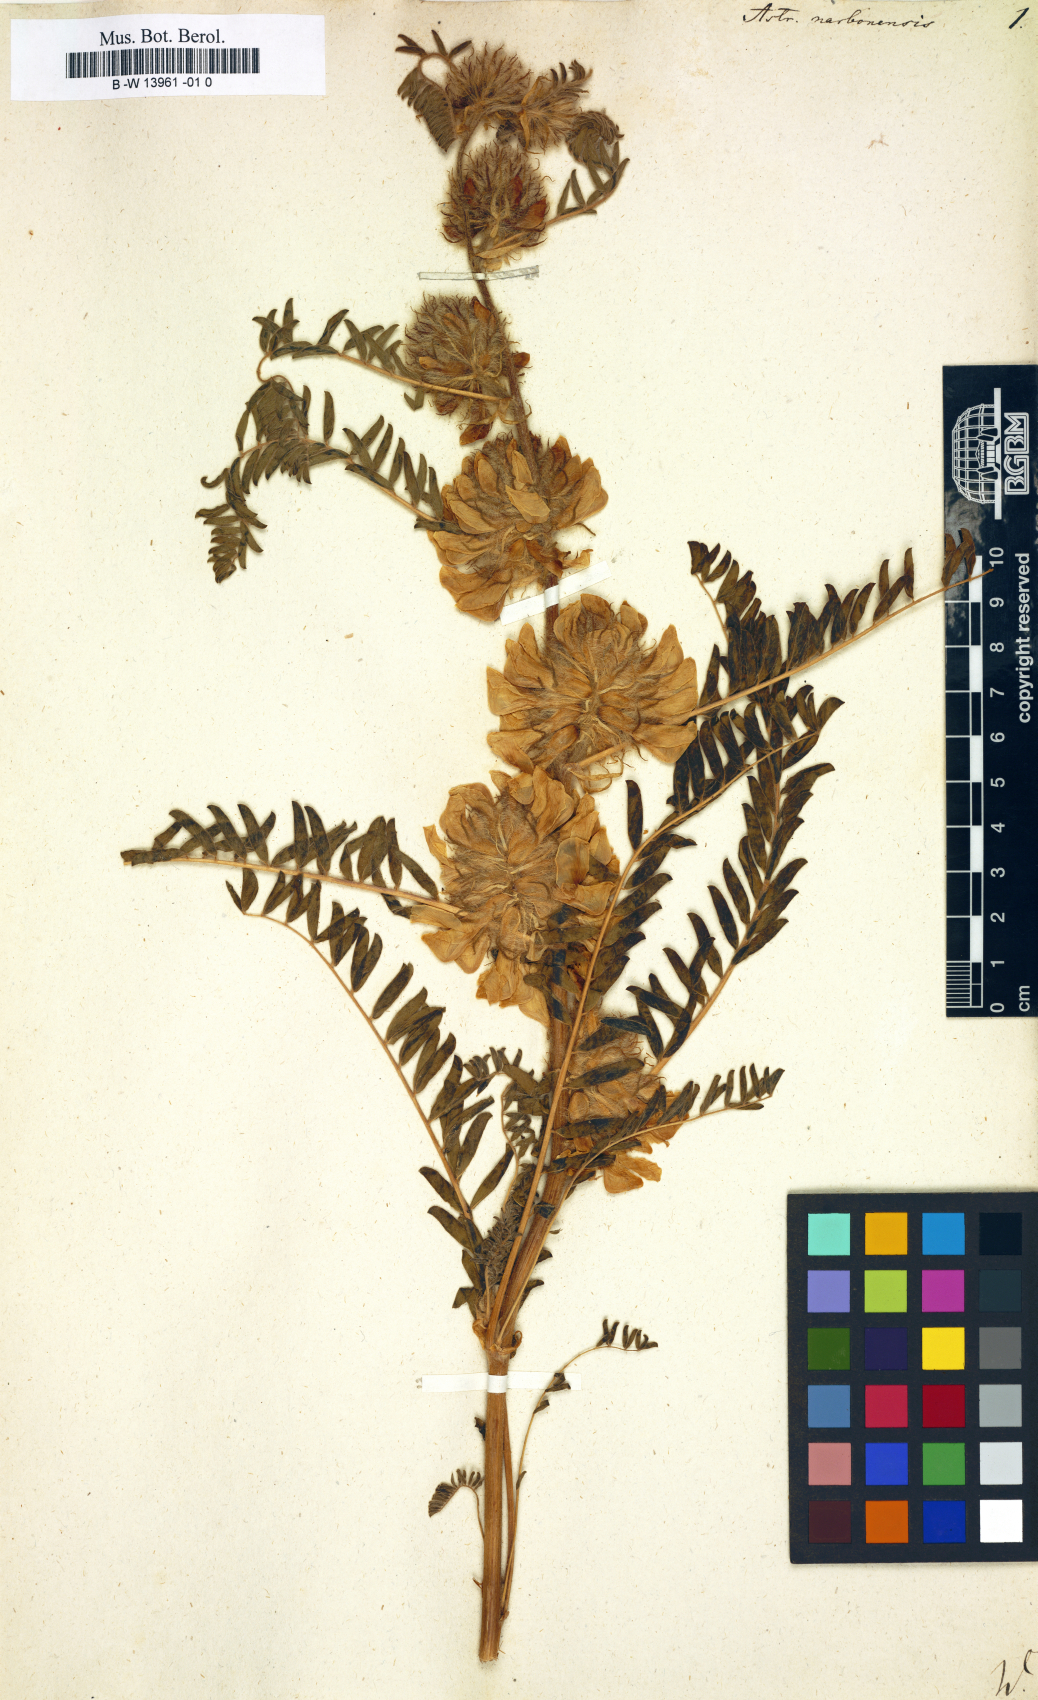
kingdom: Plantae
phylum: Tracheophyta
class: Magnoliopsida
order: Fabales
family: Fabaceae
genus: Astragalus
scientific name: Astragalus
